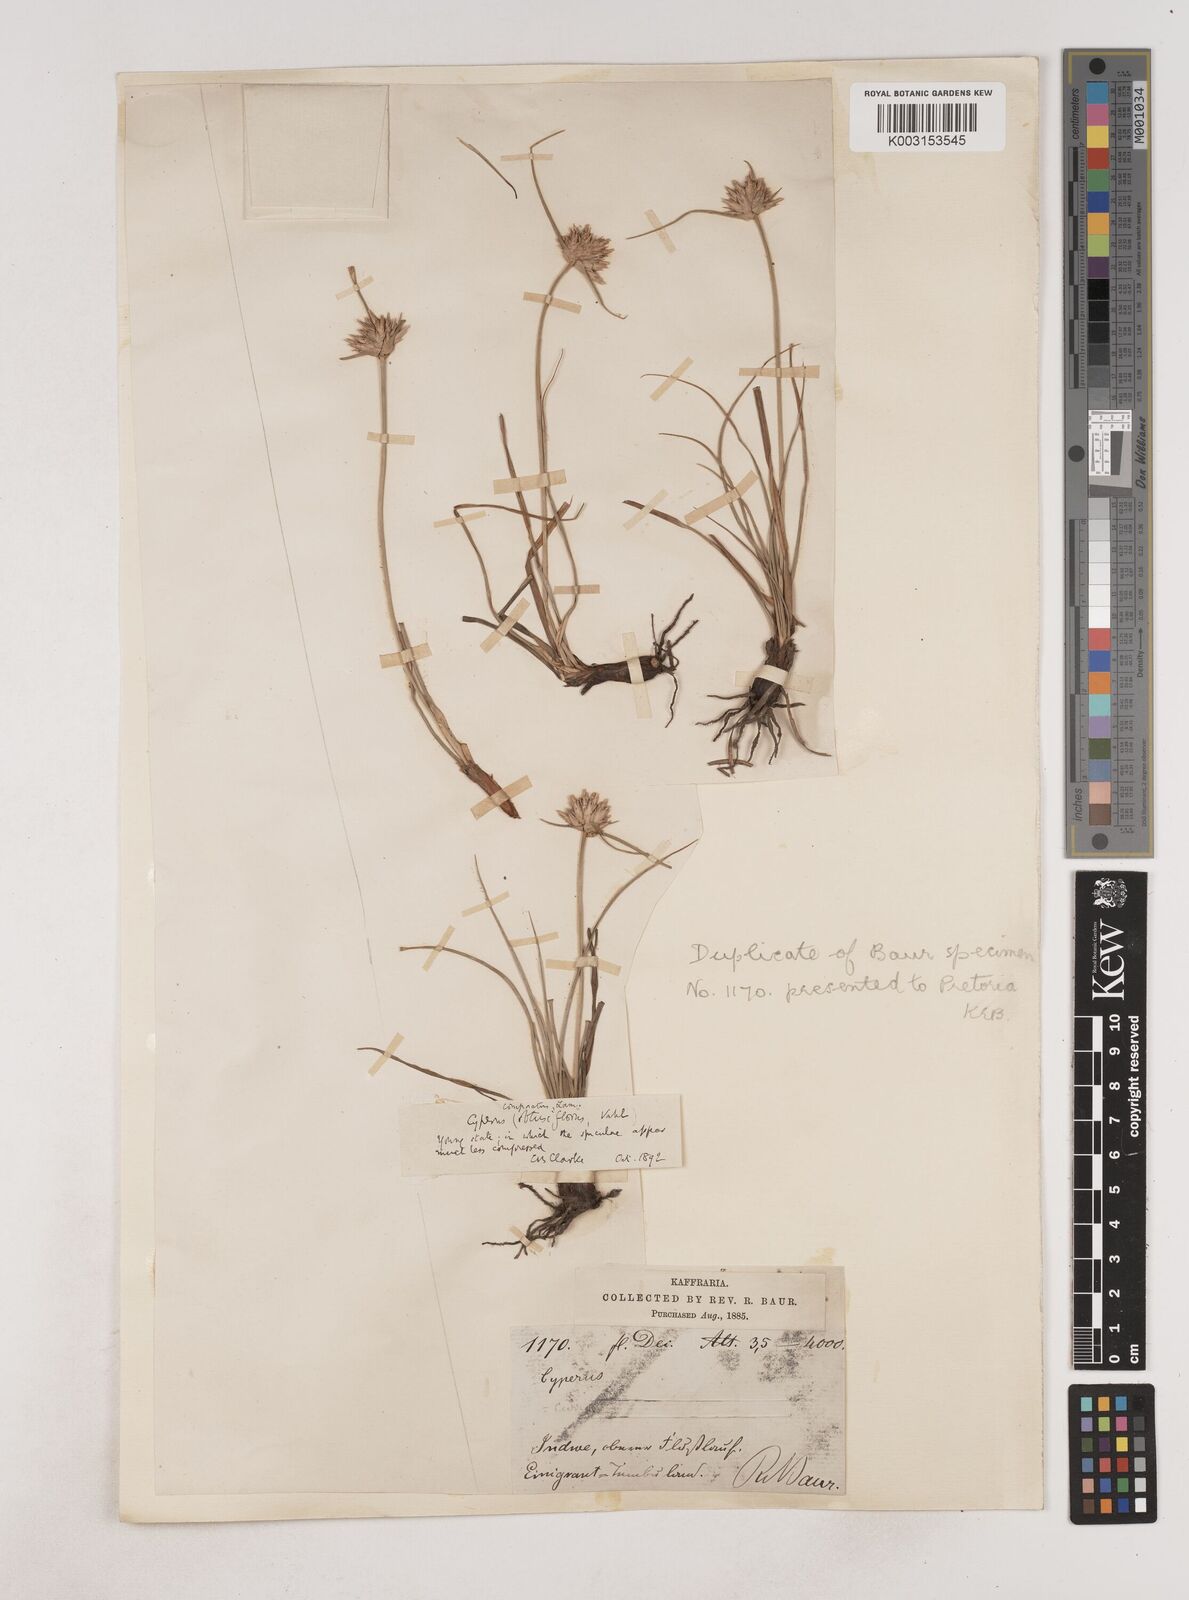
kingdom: Plantae
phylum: Tracheophyta
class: Liliopsida
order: Poales
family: Cyperaceae
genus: Cyperus
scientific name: Cyperus niveus
